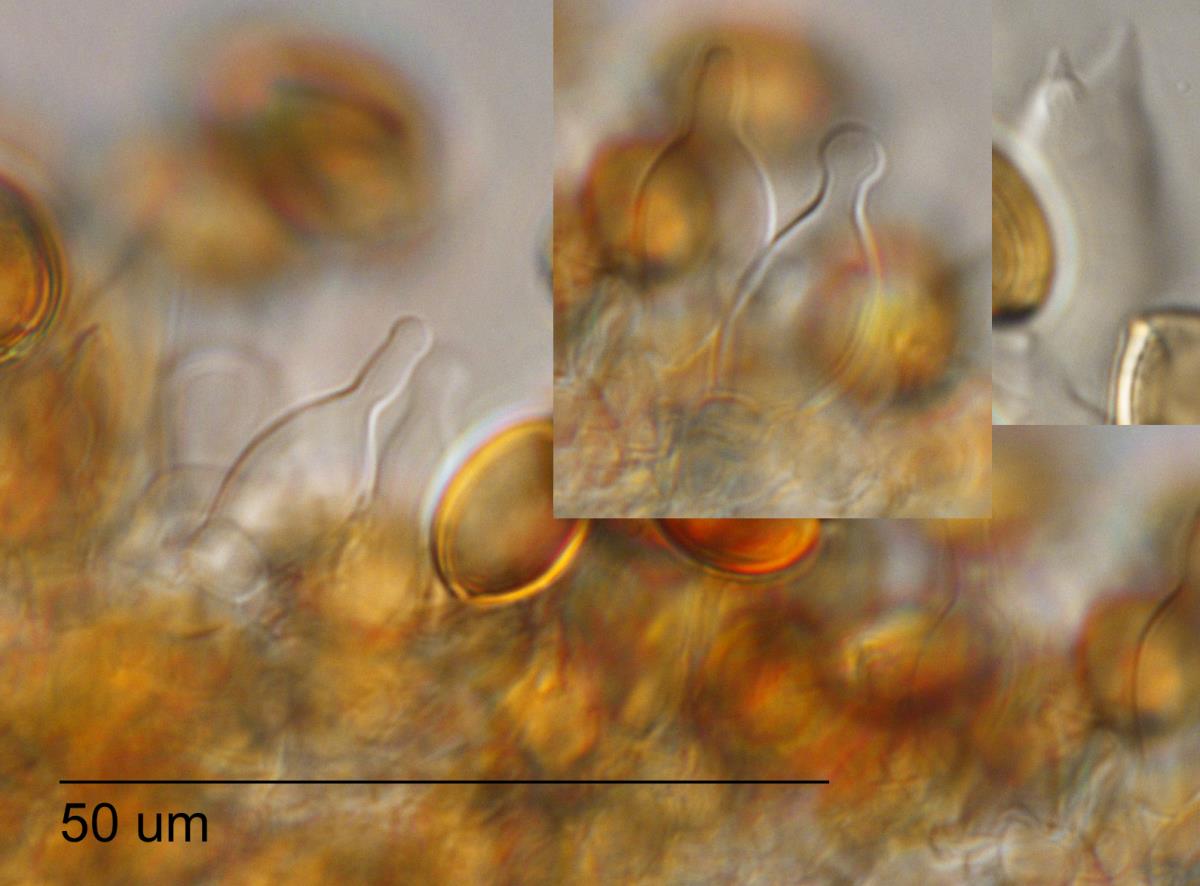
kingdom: Fungi
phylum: Basidiomycota
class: Agaricomycetes
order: Agaricales
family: Hymenogastraceae
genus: Psilocybe
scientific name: Psilocybe sabulosa
